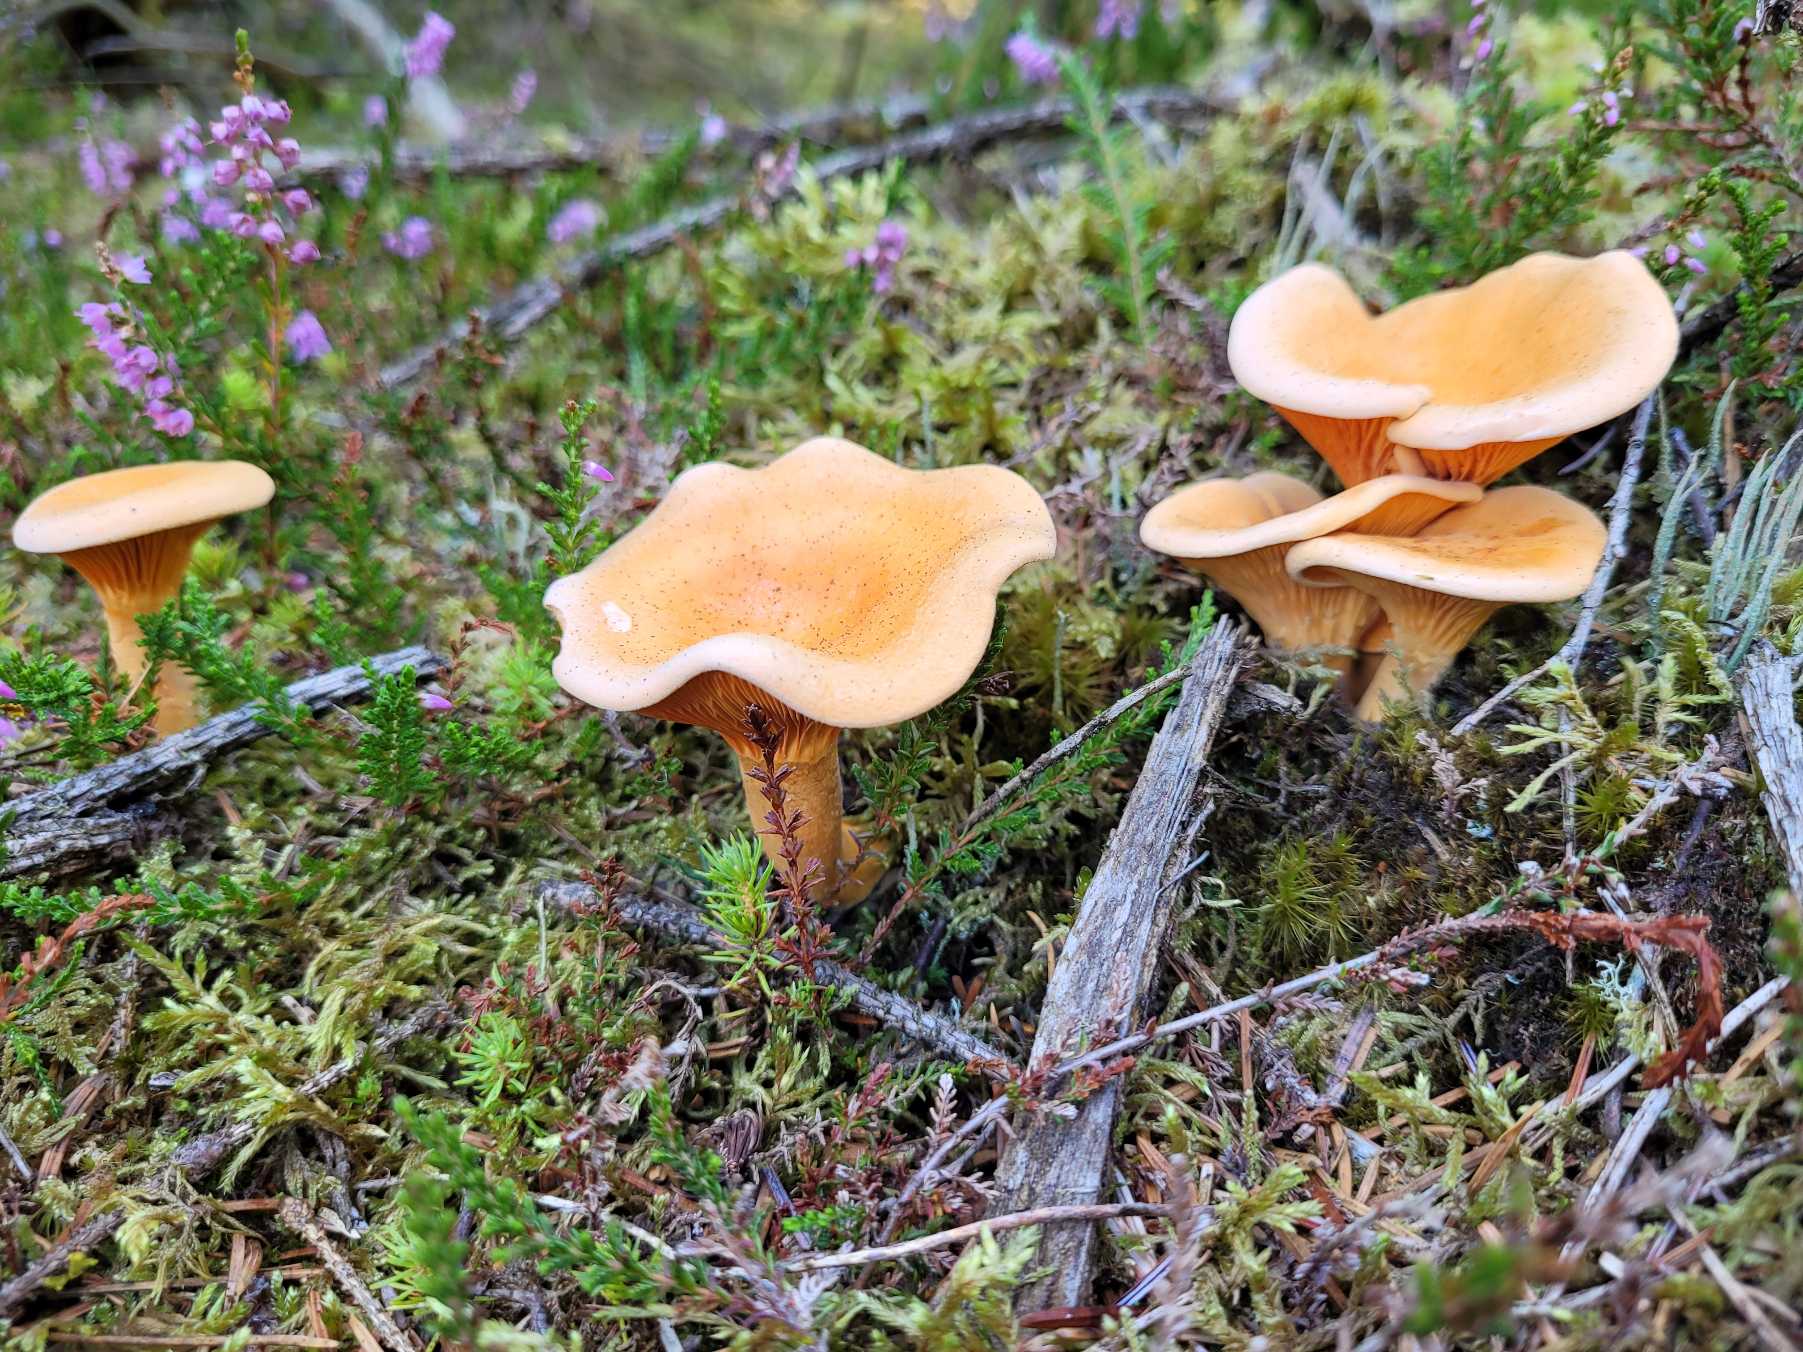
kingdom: Fungi
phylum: Basidiomycota
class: Agaricomycetes
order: Boletales
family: Hygrophoropsidaceae
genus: Hygrophoropsis
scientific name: Hygrophoropsis aurantiaca
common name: Almindelig orangekantarel
